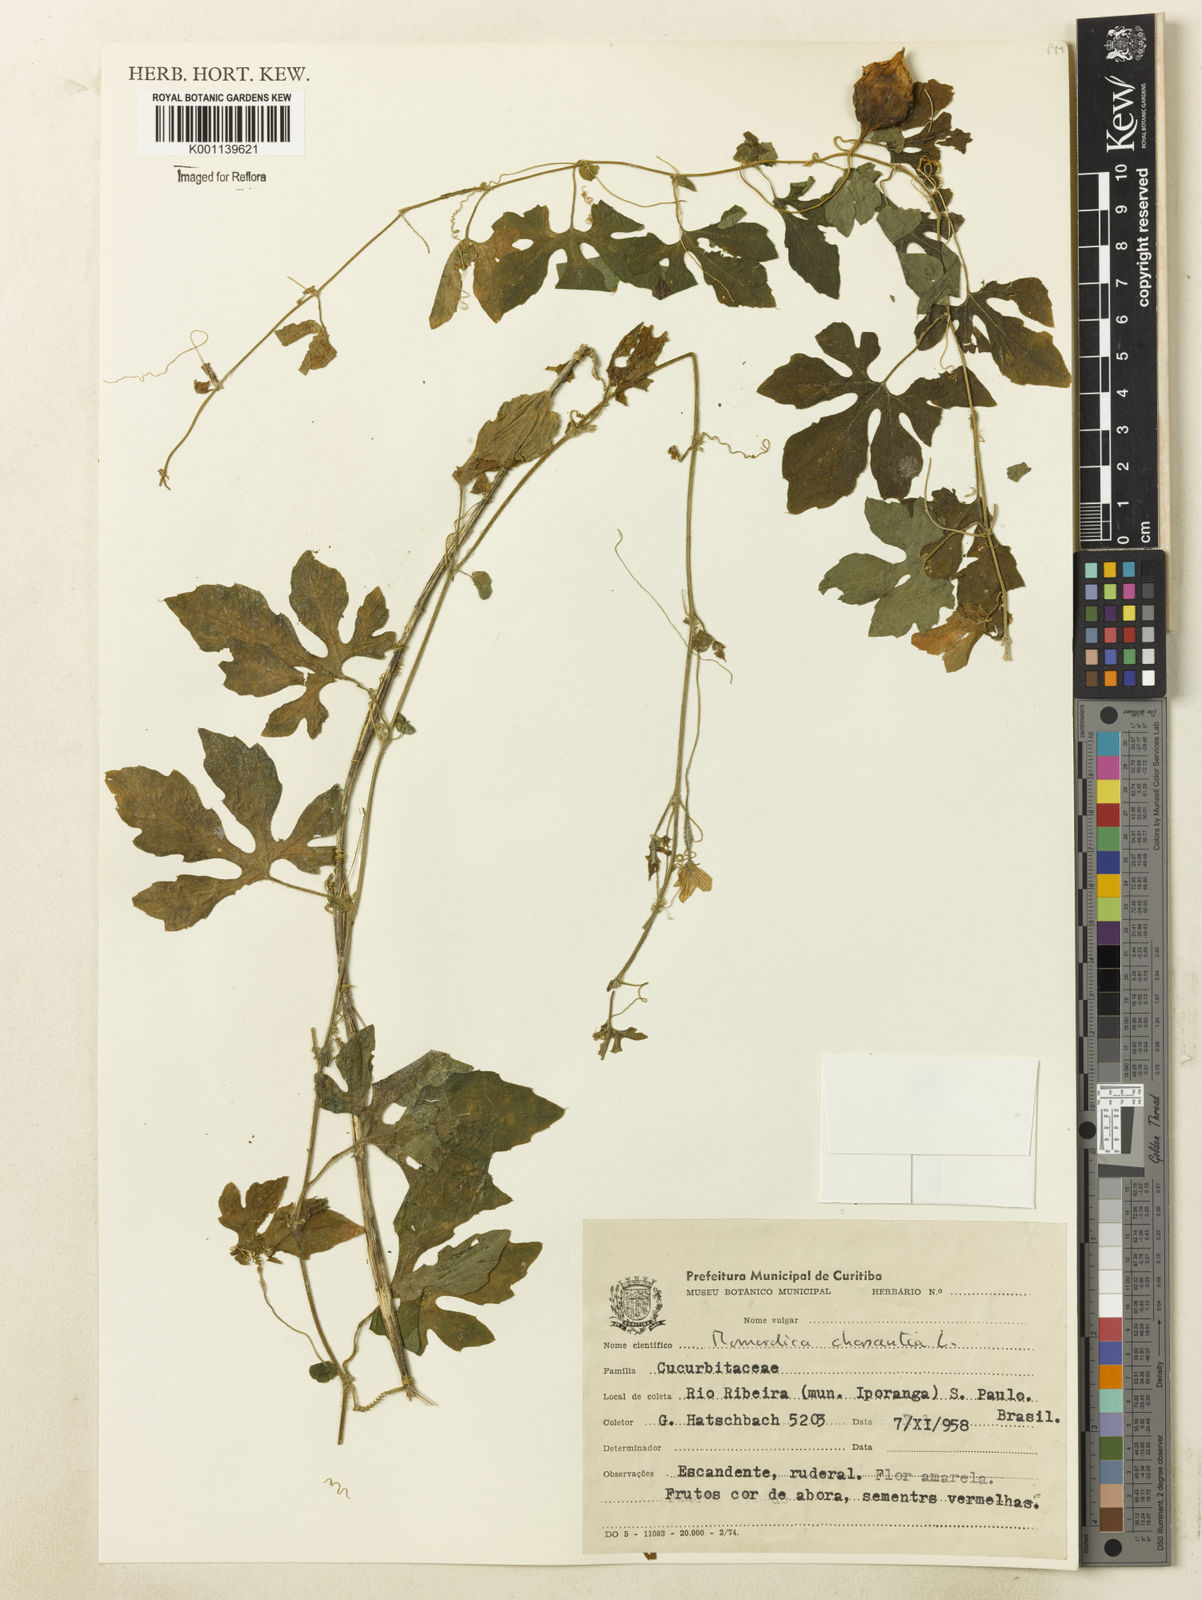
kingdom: Plantae
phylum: Tracheophyta
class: Magnoliopsida
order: Cucurbitales
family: Cucurbitaceae
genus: Momordica
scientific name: Momordica charantia
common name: Balsampear
